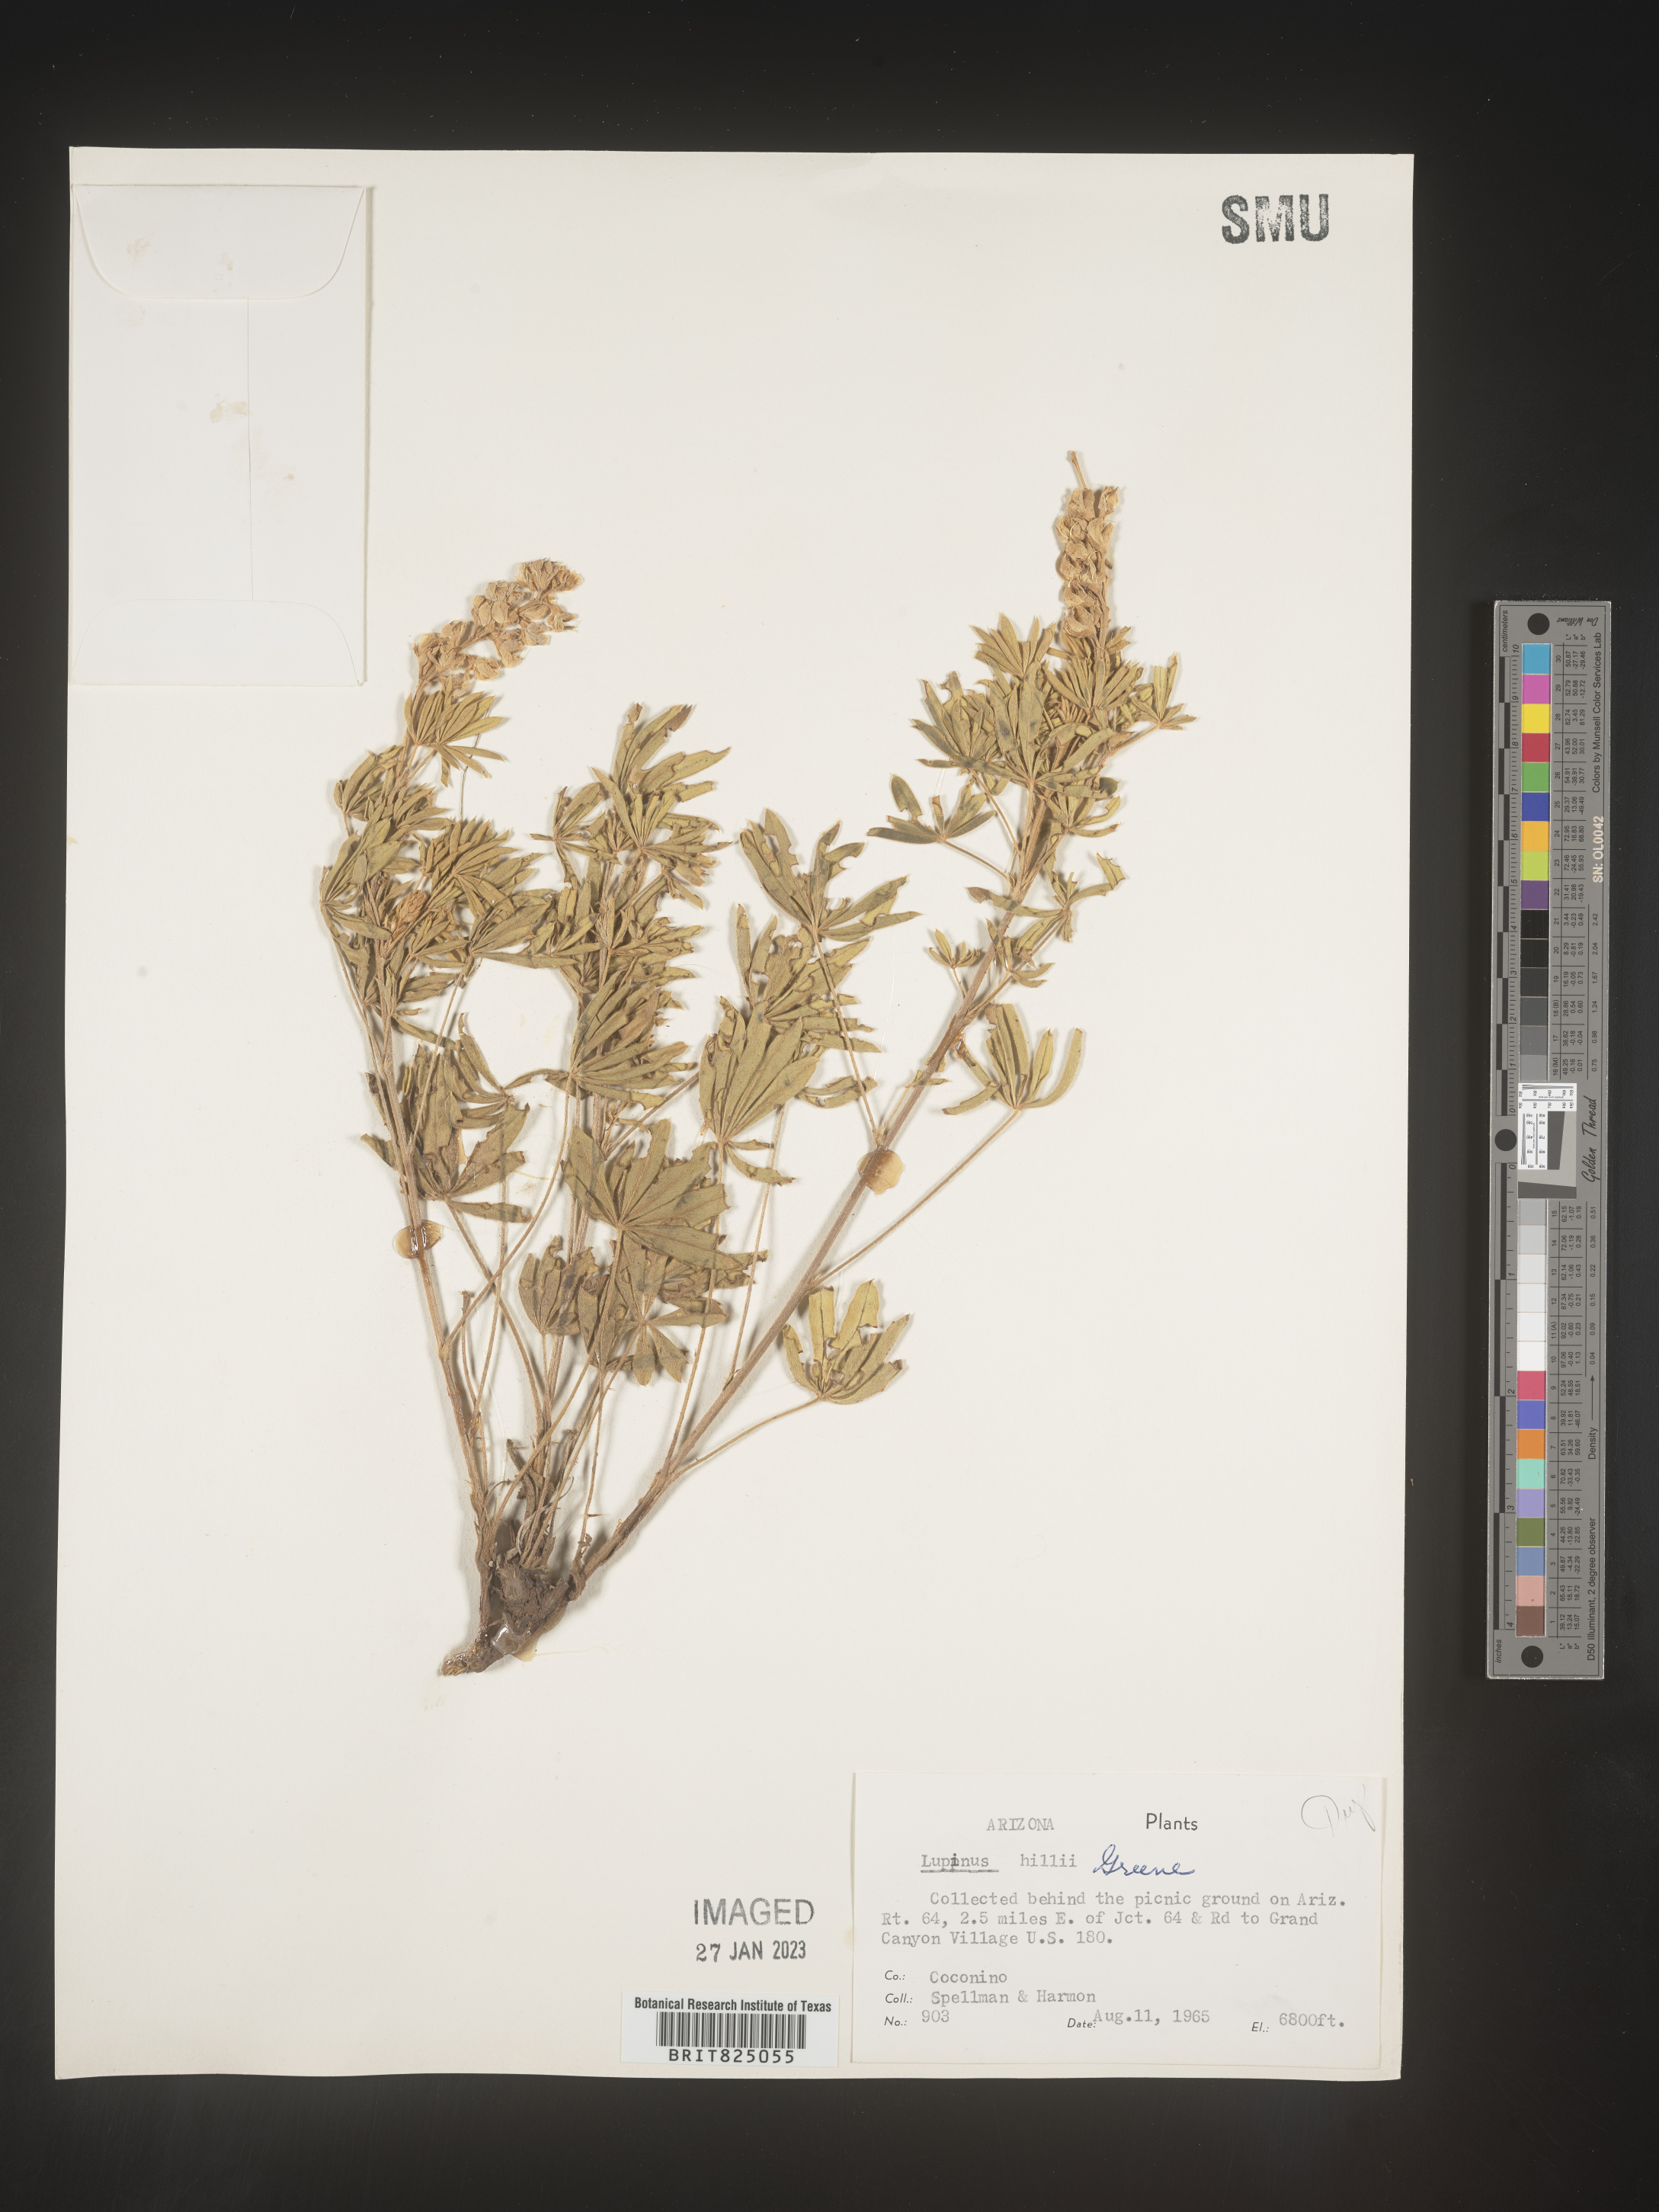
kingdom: Plantae
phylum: Tracheophyta
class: Magnoliopsida
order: Fabales
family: Fabaceae
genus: Lupinus
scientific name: Lupinus
